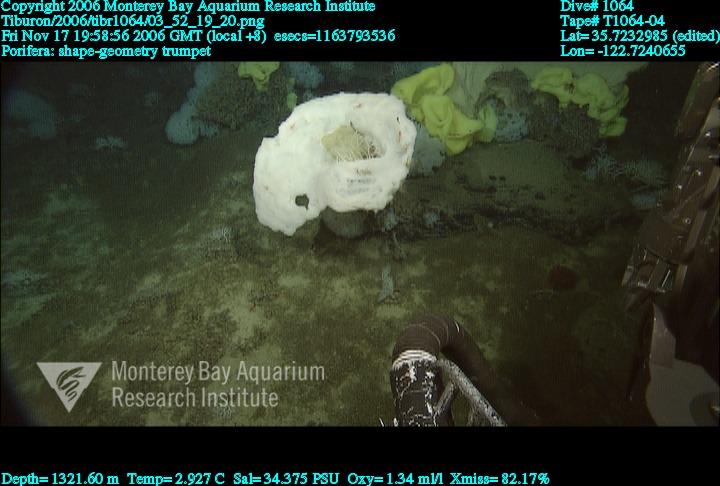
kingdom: Animalia
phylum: Porifera
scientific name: Porifera
